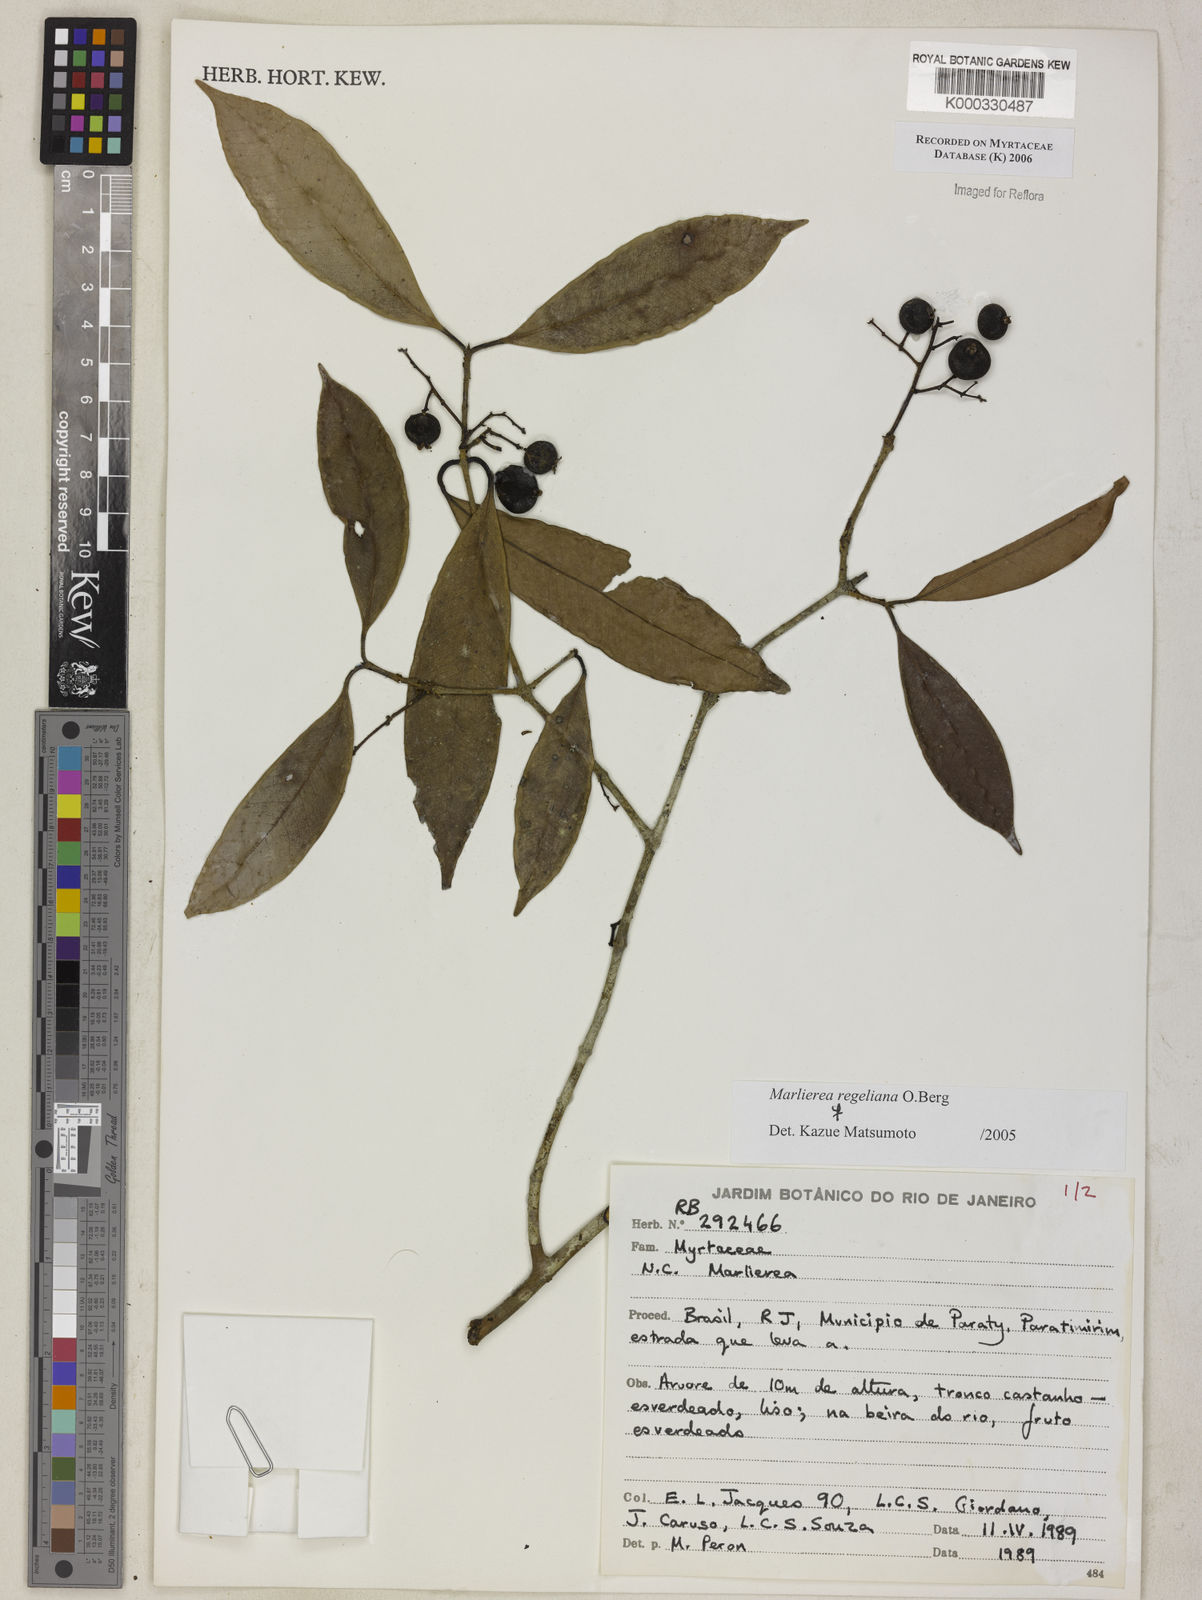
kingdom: Plantae
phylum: Tracheophyta
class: Magnoliopsida
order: Myrtales
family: Myrtaceae
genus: Myrcia
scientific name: Myrcia neoregeliana
